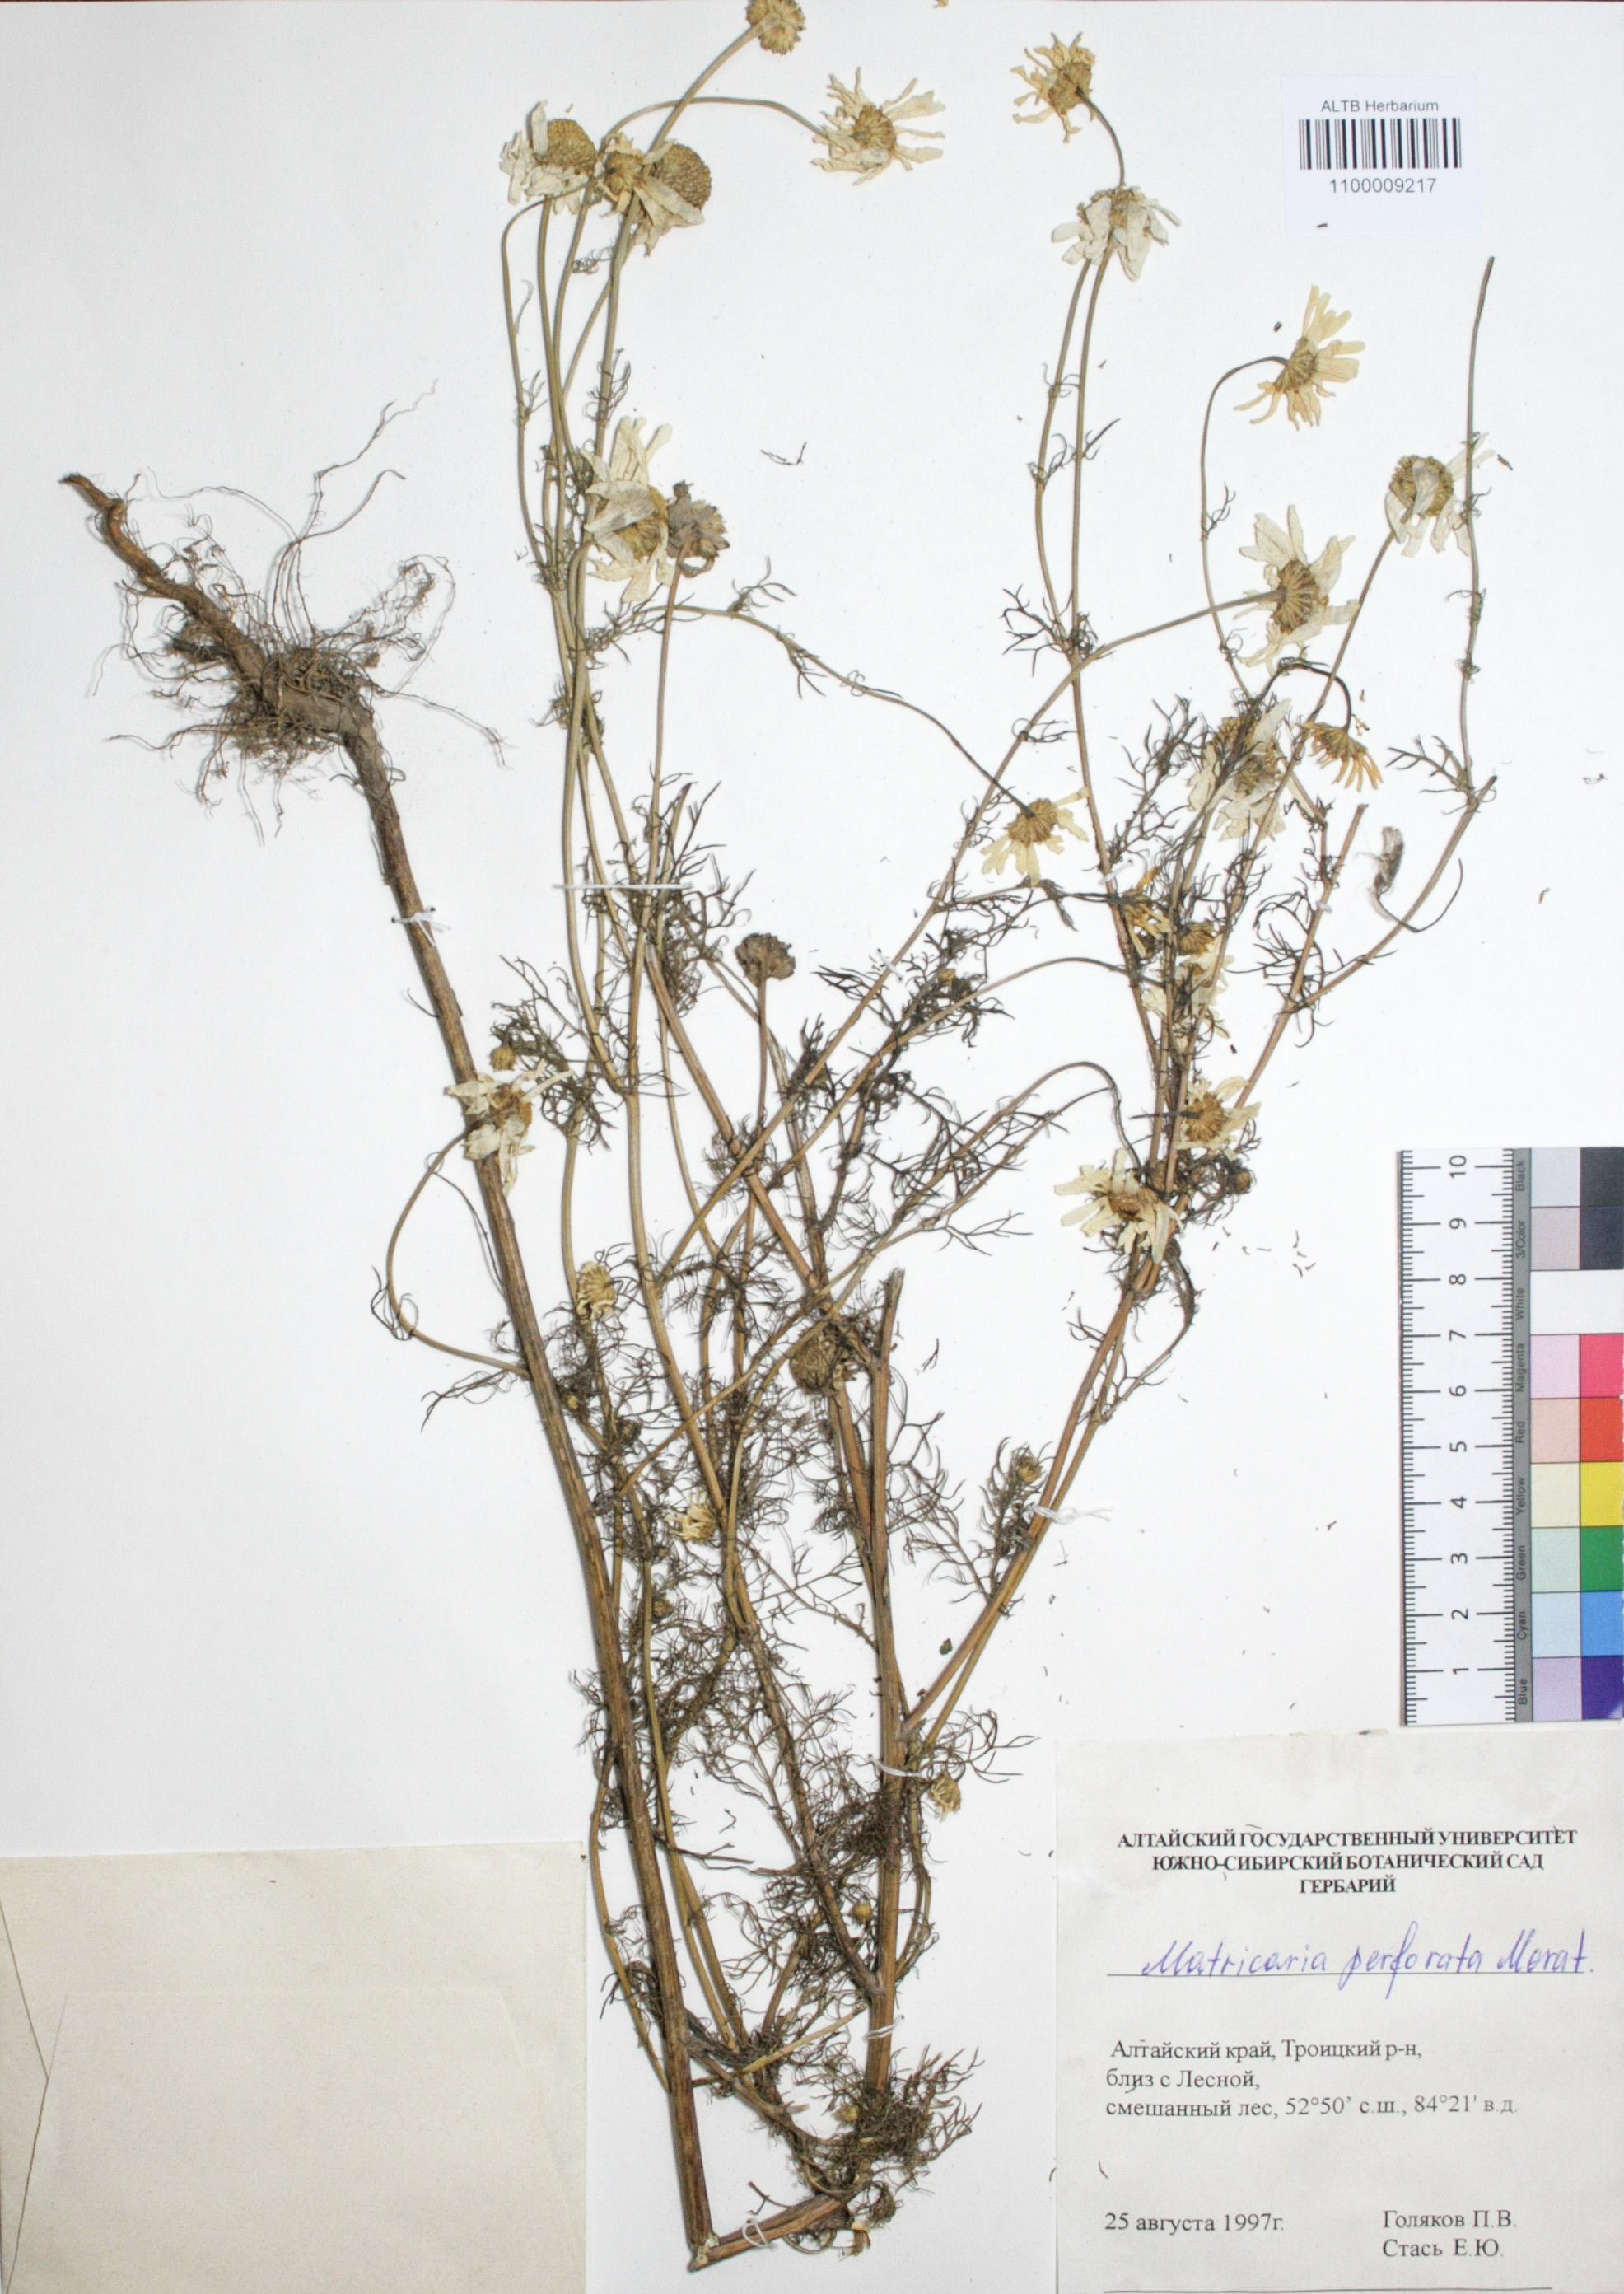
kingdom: Plantae
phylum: Tracheophyta
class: Magnoliopsida
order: Asterales
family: Asteraceae
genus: Tripleurospermum
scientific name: Tripleurospermum inodorum
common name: Scentless mayweed
